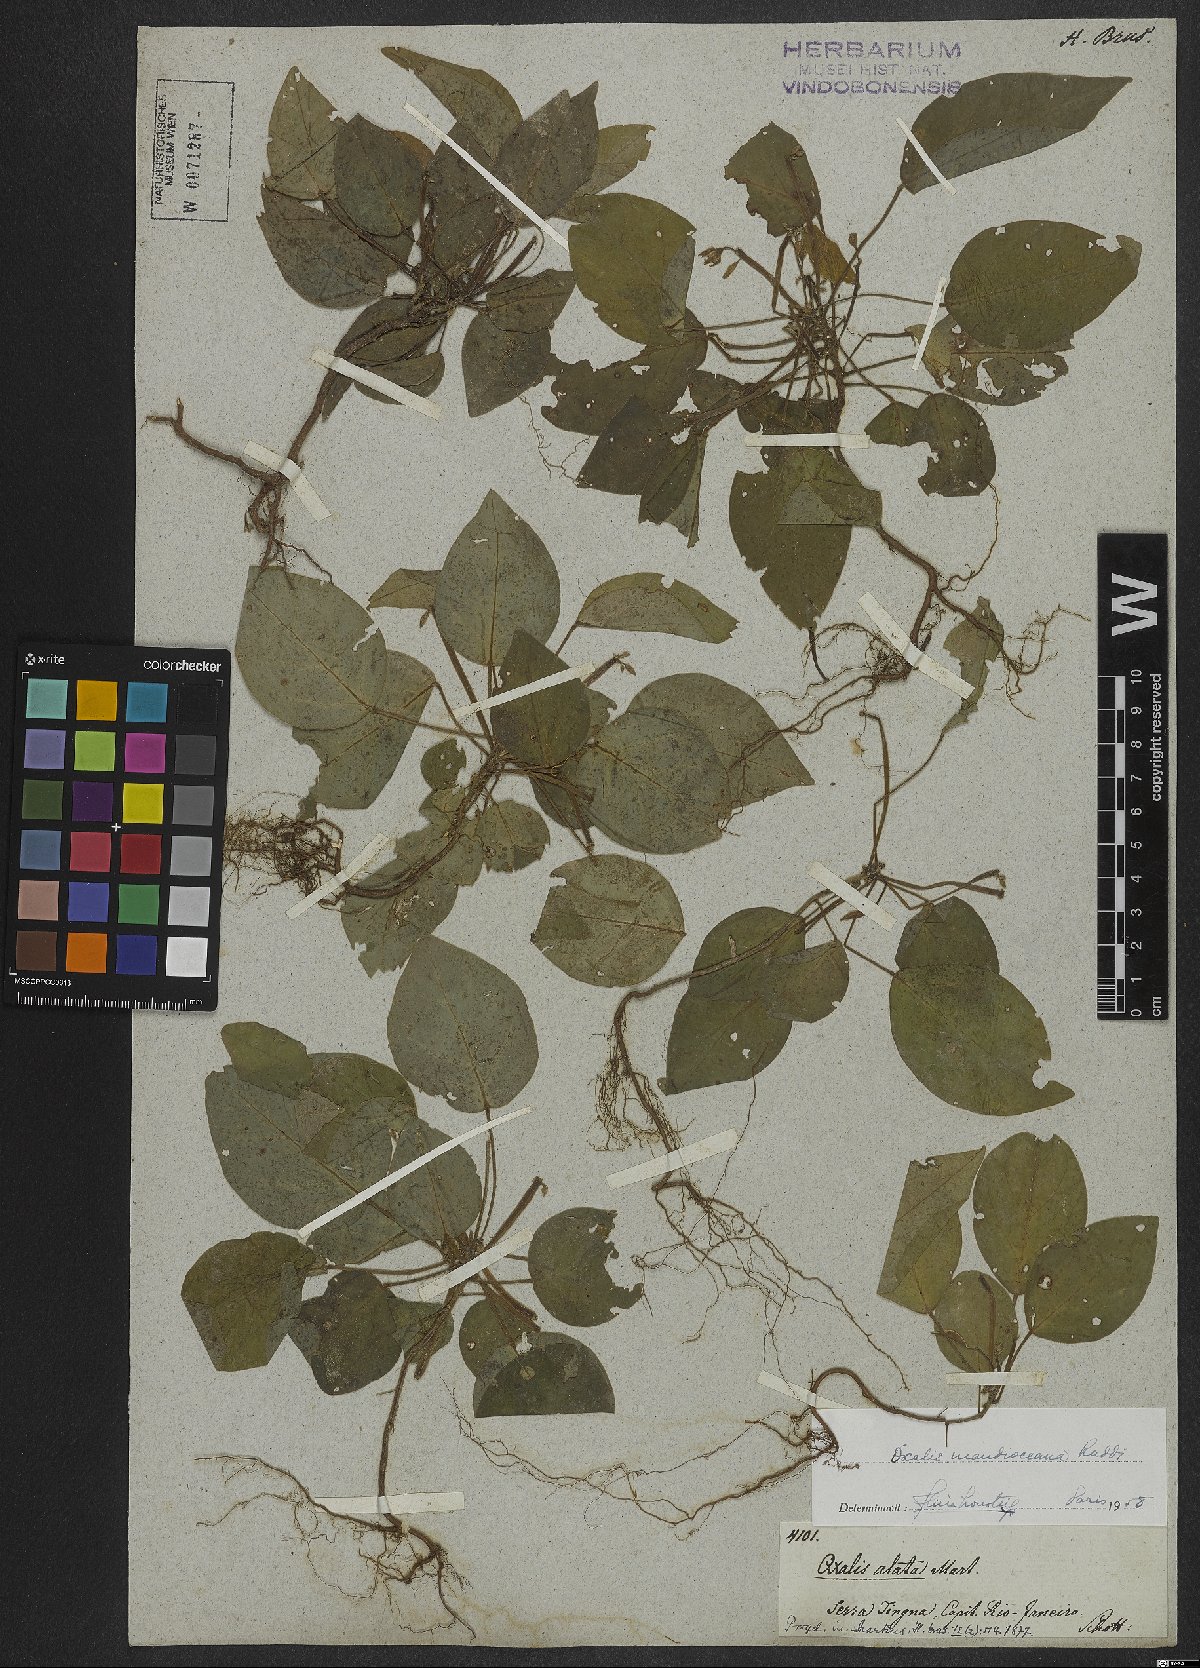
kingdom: Plantae
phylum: Tracheophyta
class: Magnoliopsida
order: Oxalidales
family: Oxalidaceae
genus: Oxalis
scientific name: Oxalis mandioccana
